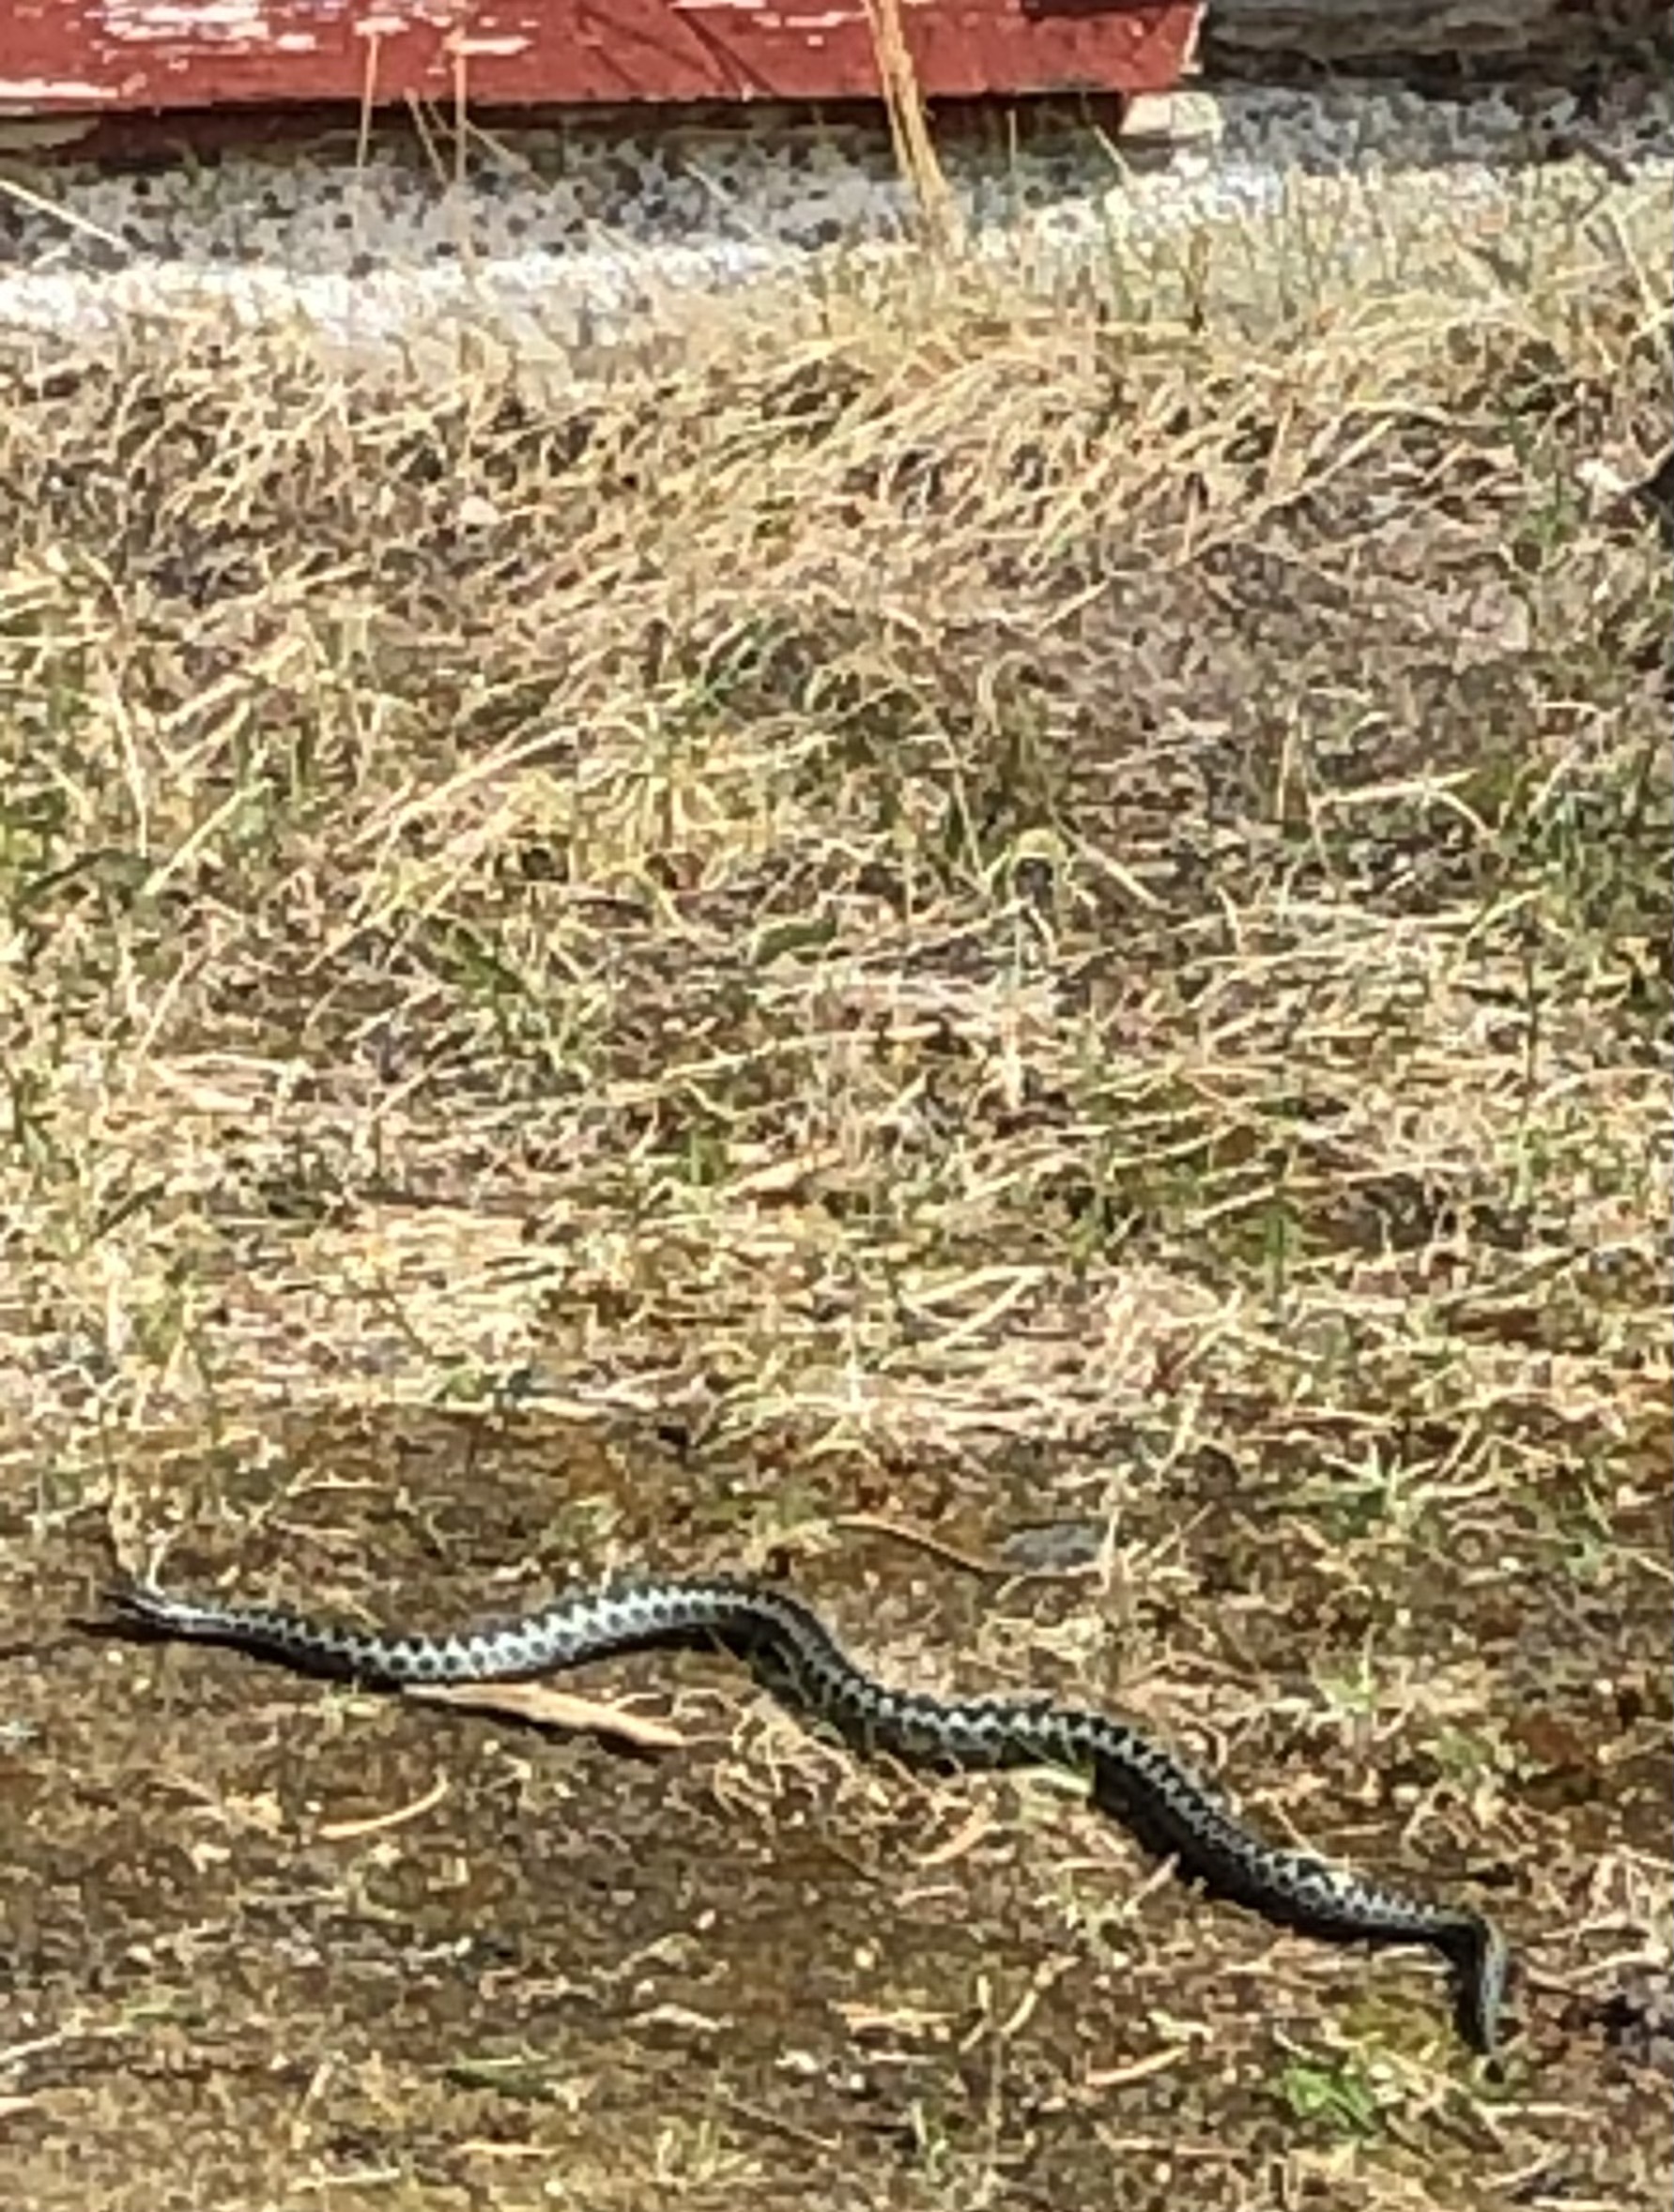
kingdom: Animalia
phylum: Chordata
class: Squamata
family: Viperidae
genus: Vipera
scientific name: Vipera berus
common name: Adder
